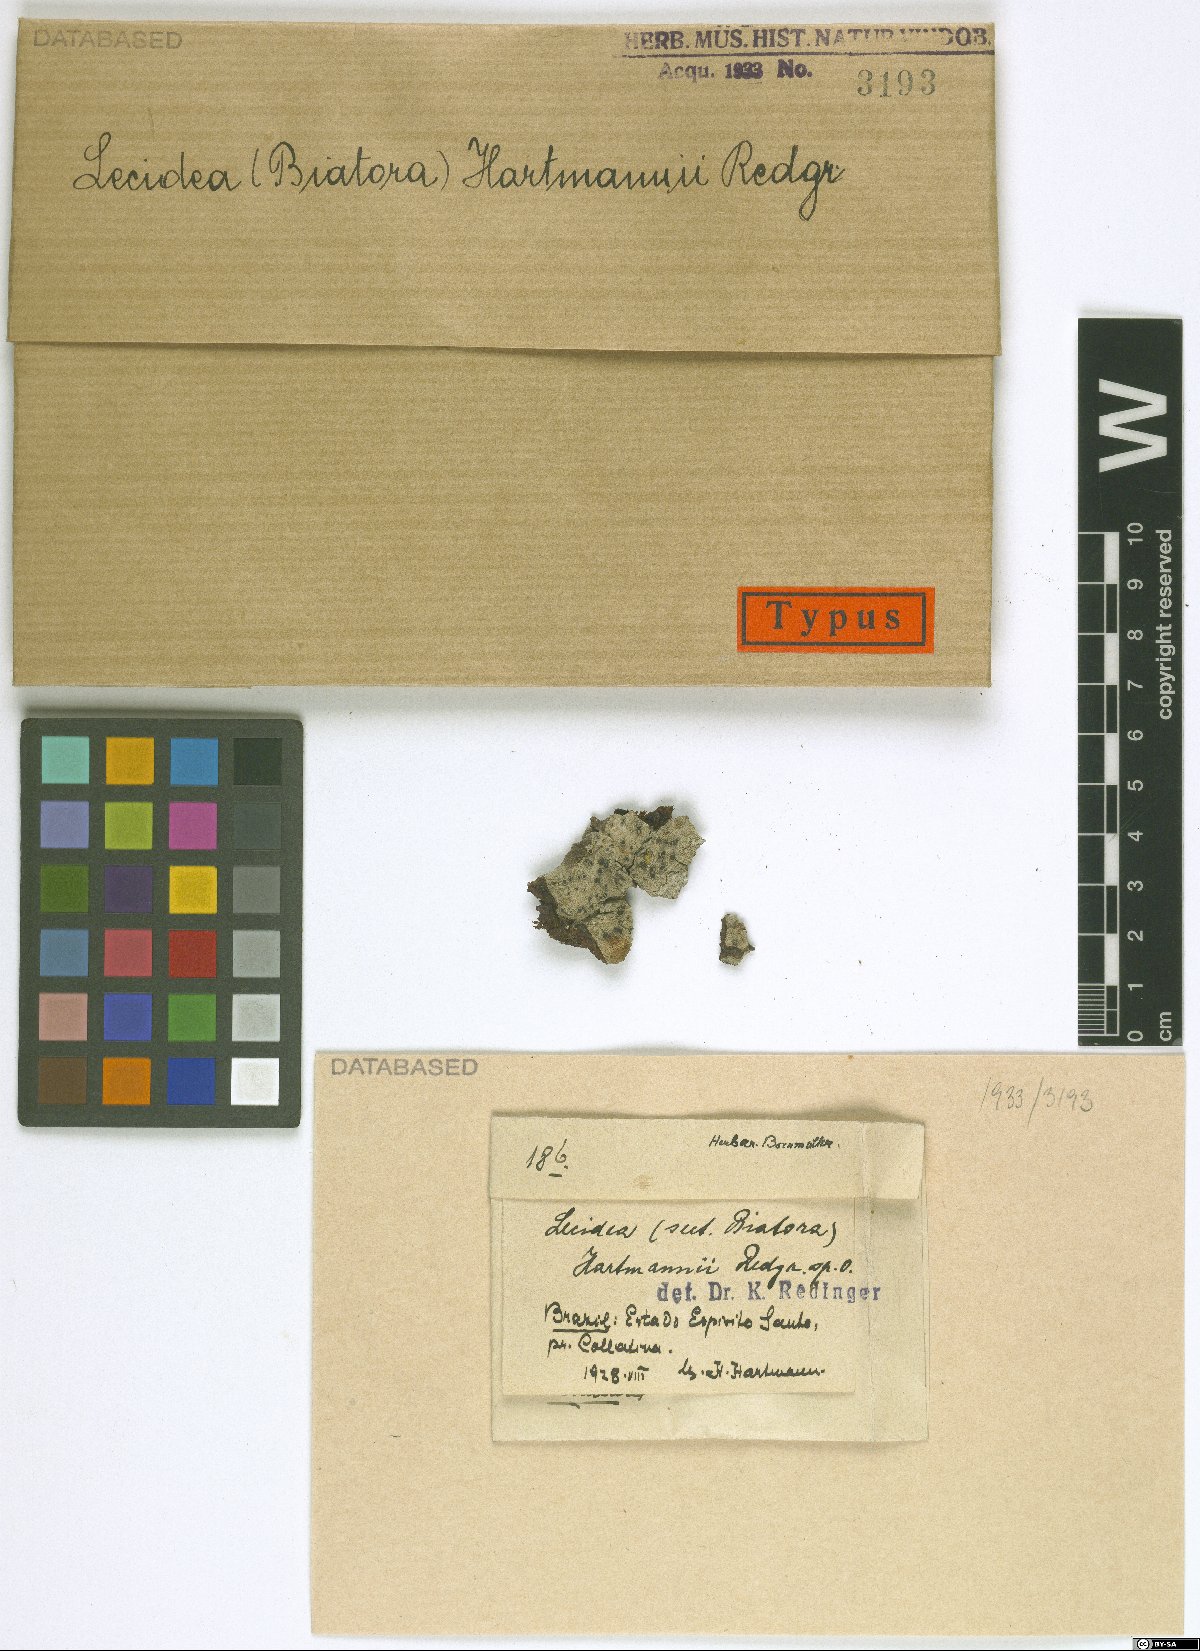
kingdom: Fungi
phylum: Ascomycota
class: Lecanoromycetes
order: Lecideales
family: Lecideaceae
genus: Lecidea
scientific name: Lecidea
